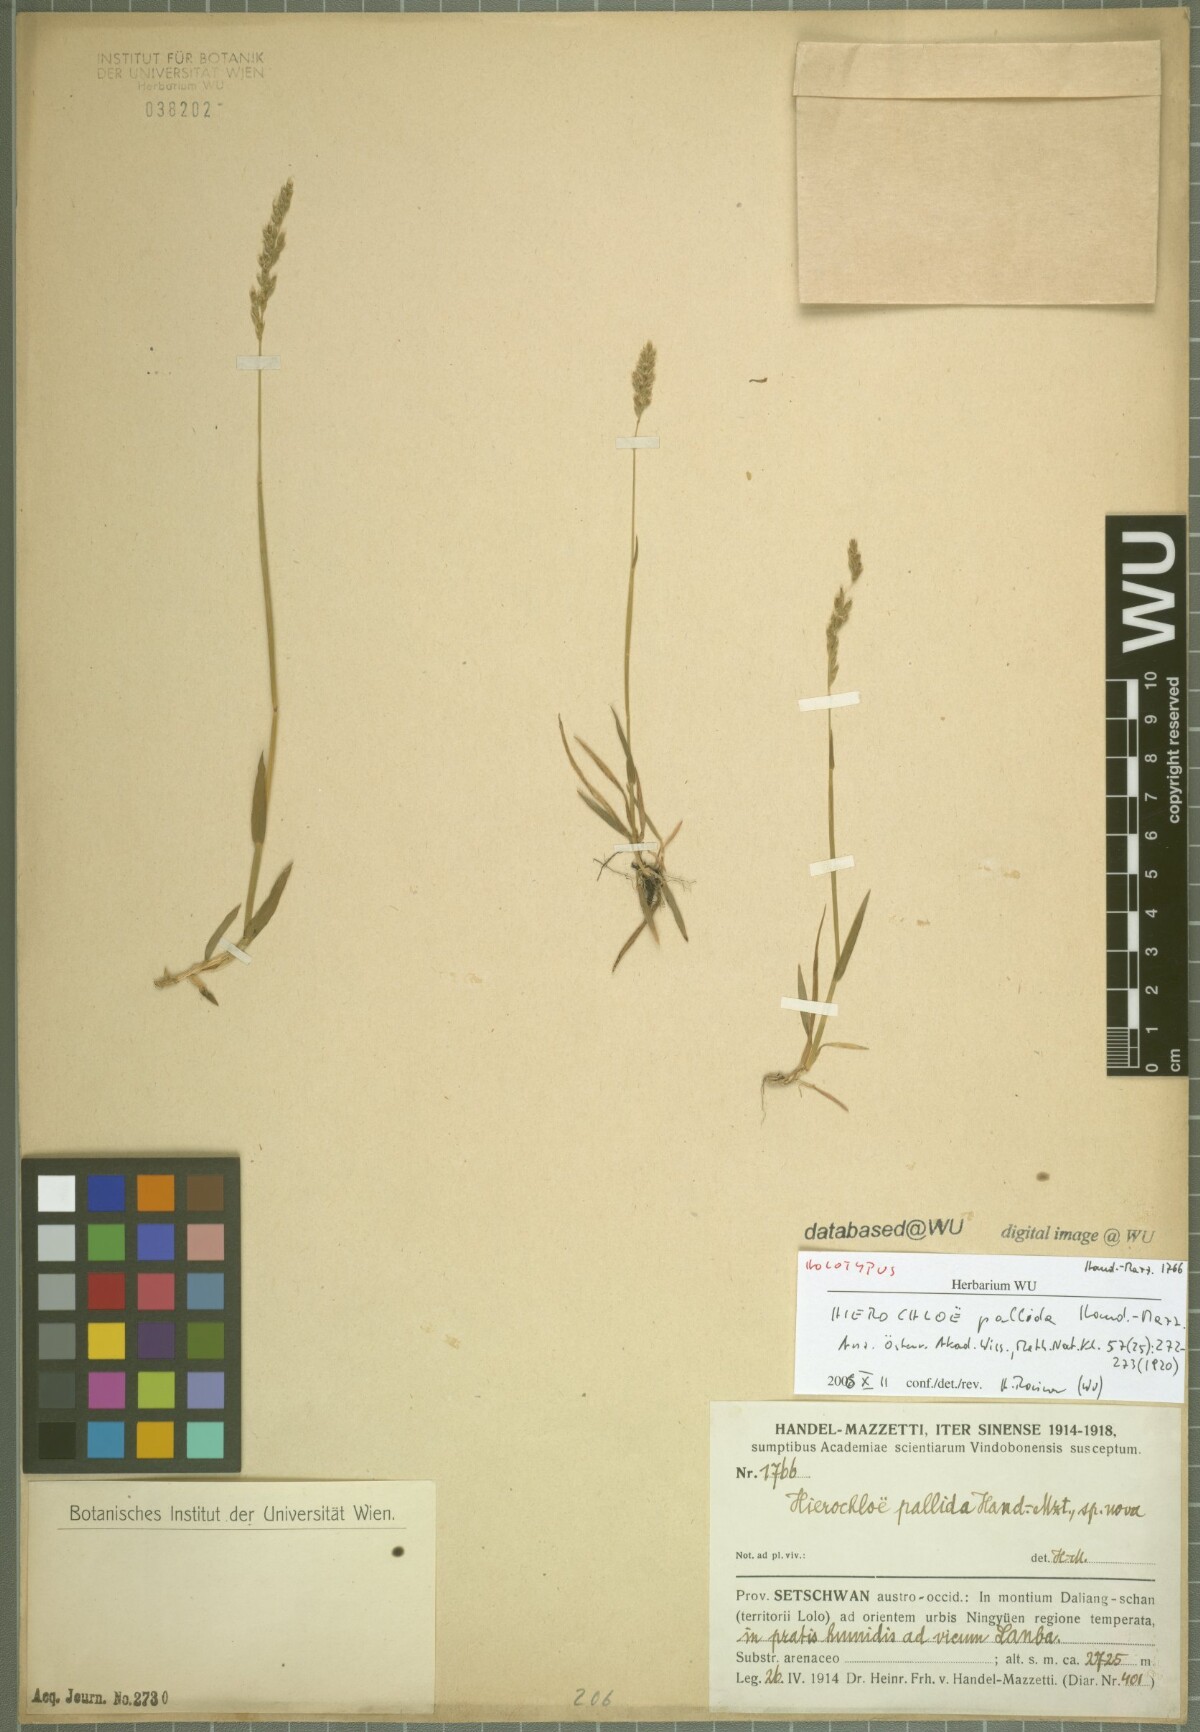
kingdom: Plantae
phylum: Tracheophyta
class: Liliopsida
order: Poales
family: Poaceae
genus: Anthoxanthum
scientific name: Anthoxanthum pallidum
